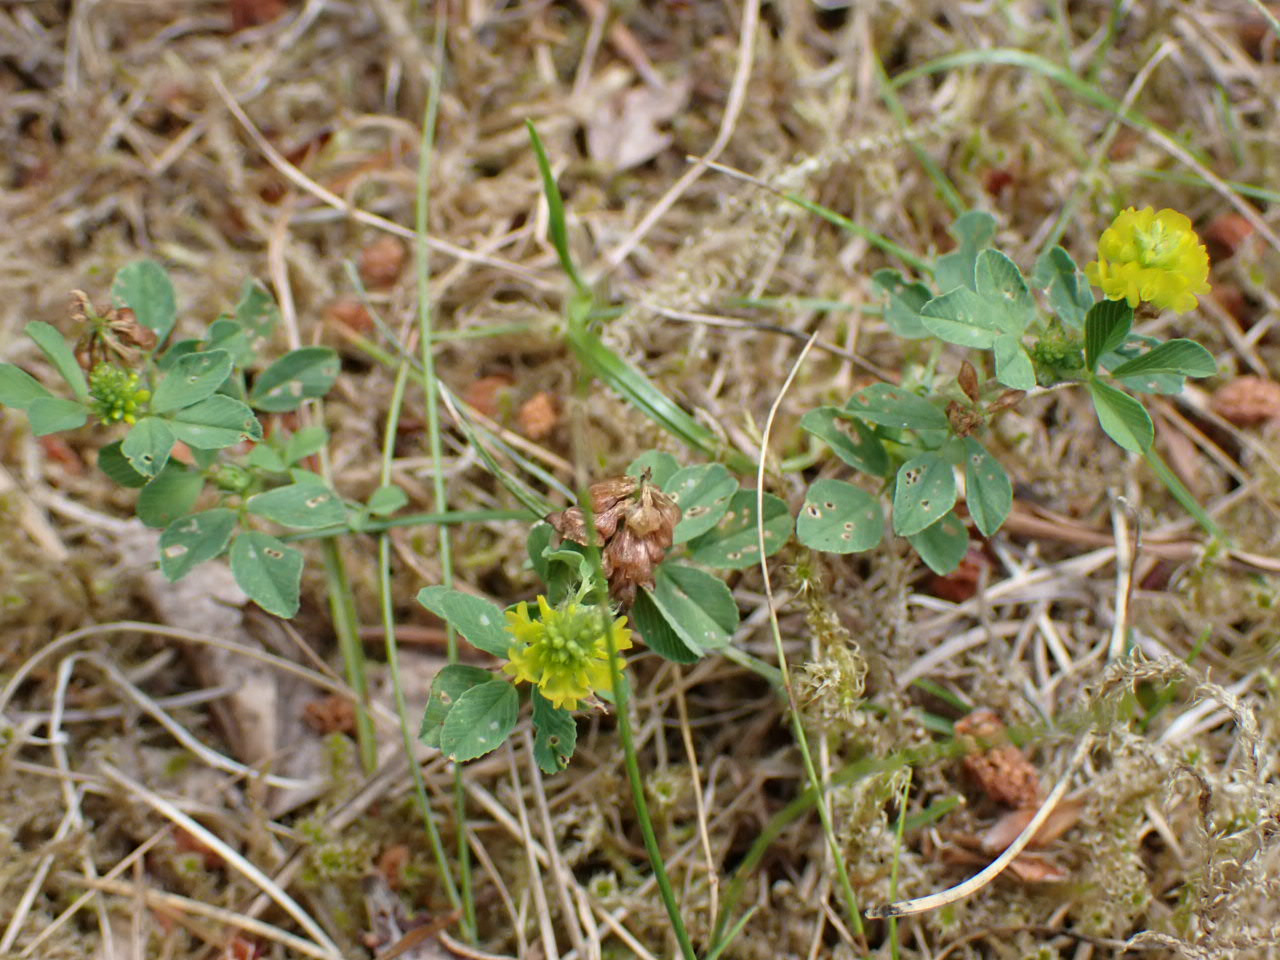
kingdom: Plantae
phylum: Tracheophyta
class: Magnoliopsida
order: Fabales
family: Fabaceae
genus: Trifolium
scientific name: Trifolium campestre
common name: Gul kløver
